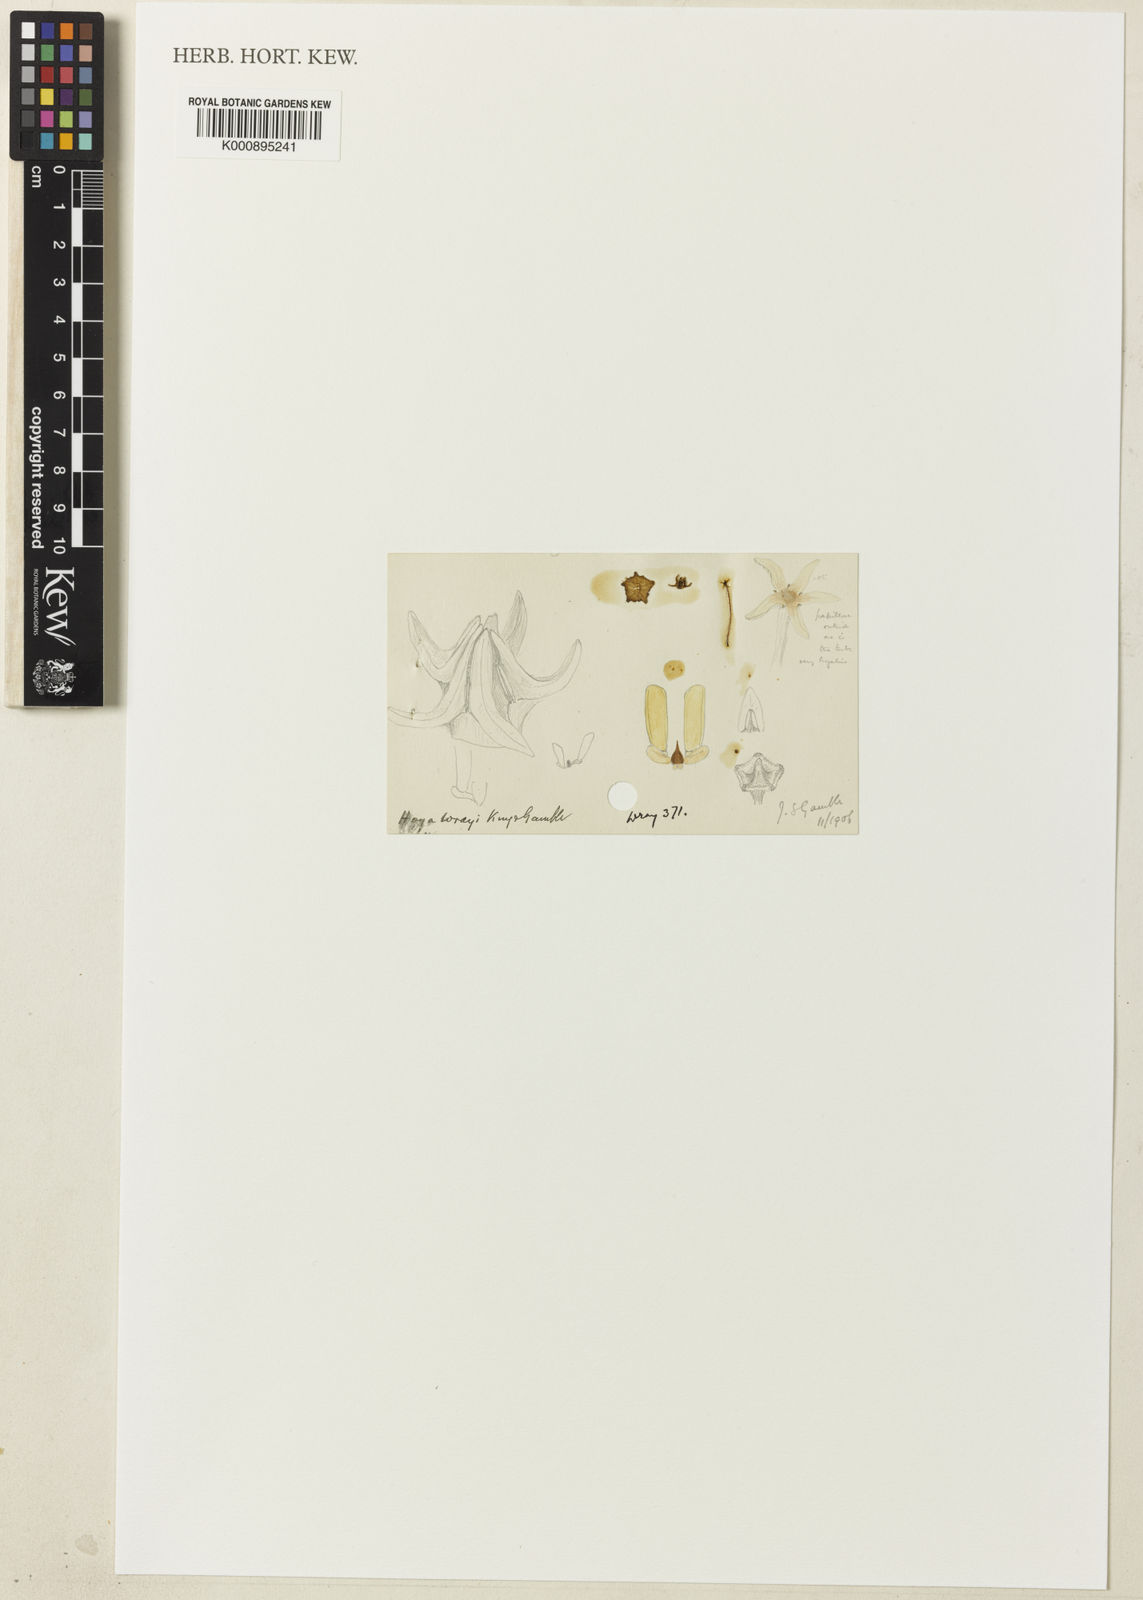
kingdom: Plantae
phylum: Tracheophyta
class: Magnoliopsida
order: Gentianales
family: Apocynaceae
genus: Hoya
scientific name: Hoya wrayi
